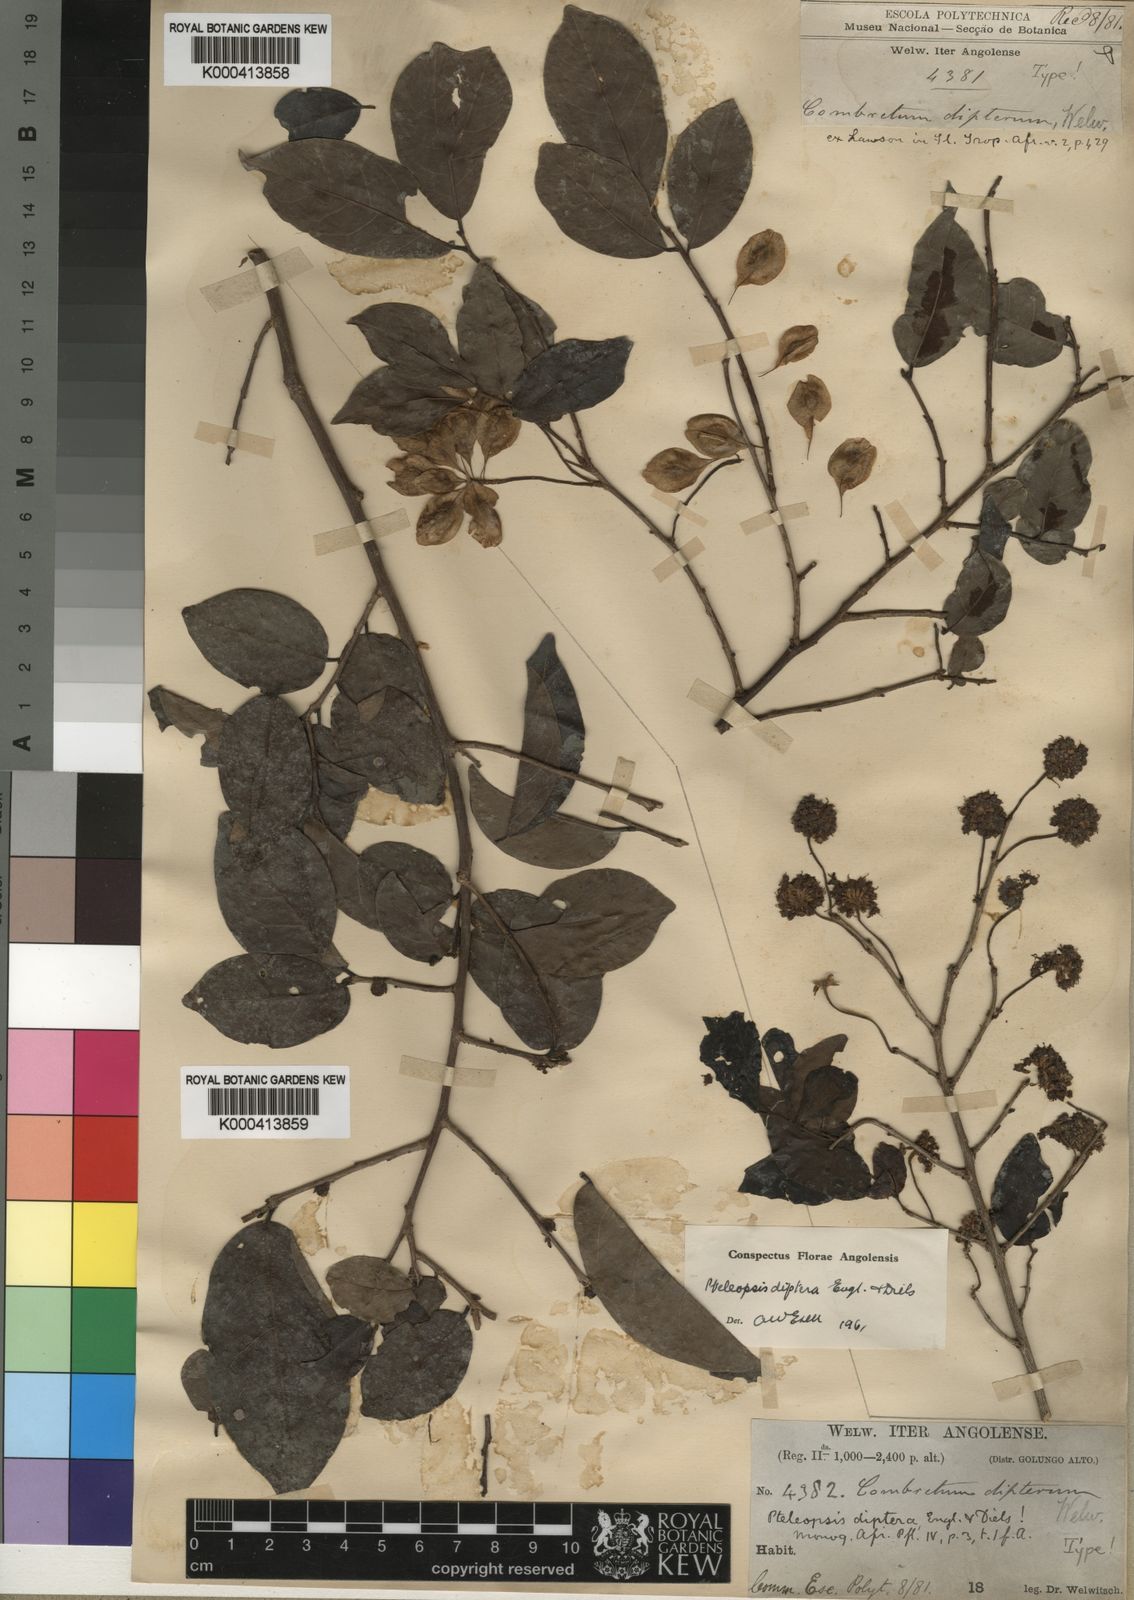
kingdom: Plantae
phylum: Tracheophyta
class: Magnoliopsida
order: Myrtales
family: Combretaceae
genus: Terminalia
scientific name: Terminalia welwitschii
